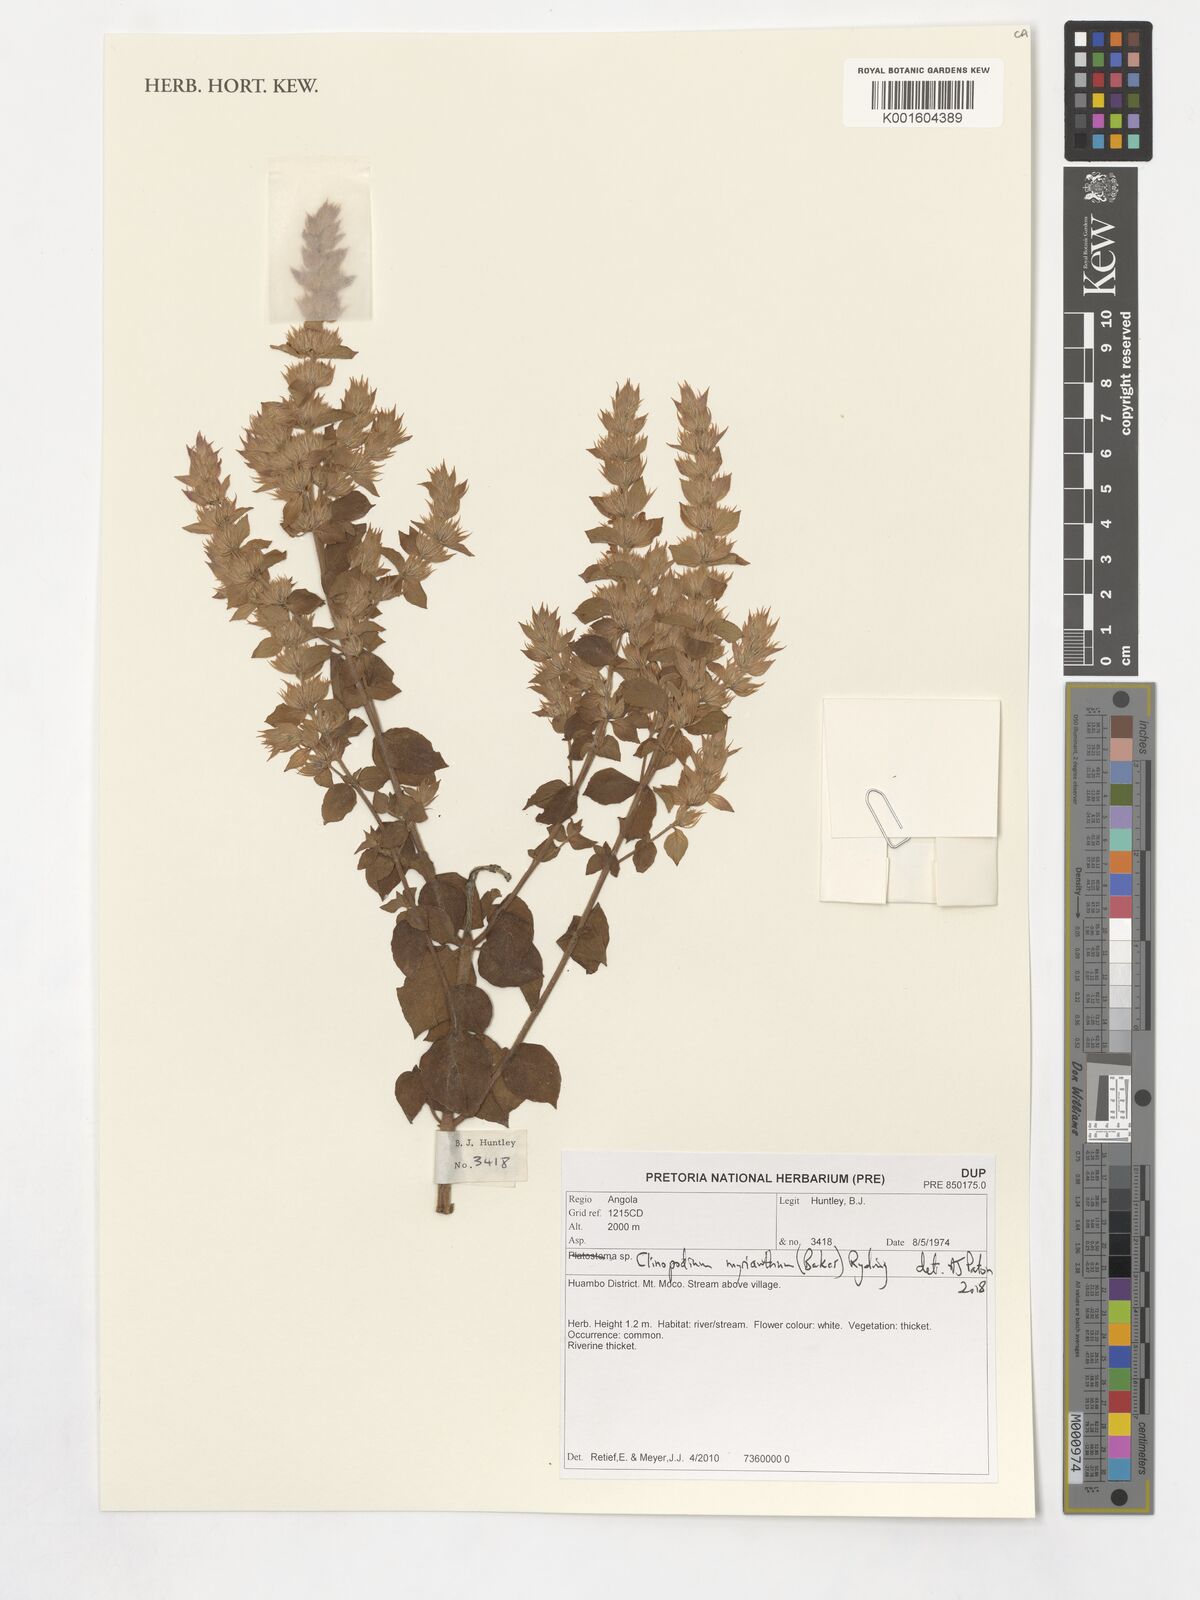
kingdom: Plantae
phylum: Tracheophyta
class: Magnoliopsida
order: Lamiales
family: Lamiaceae
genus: Clinopodium
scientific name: Clinopodium myrianthum
